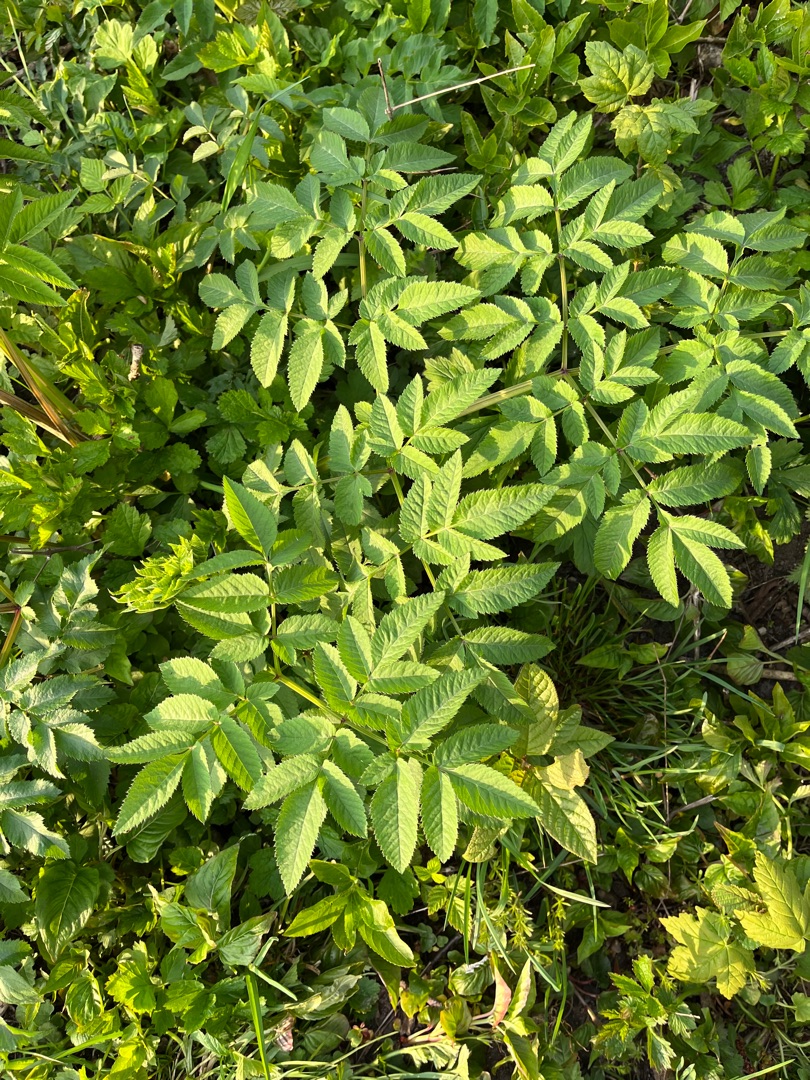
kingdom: Plantae
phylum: Tracheophyta
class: Magnoliopsida
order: Apiales
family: Apiaceae
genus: Angelica
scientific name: Angelica sylvestris
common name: Angelik
